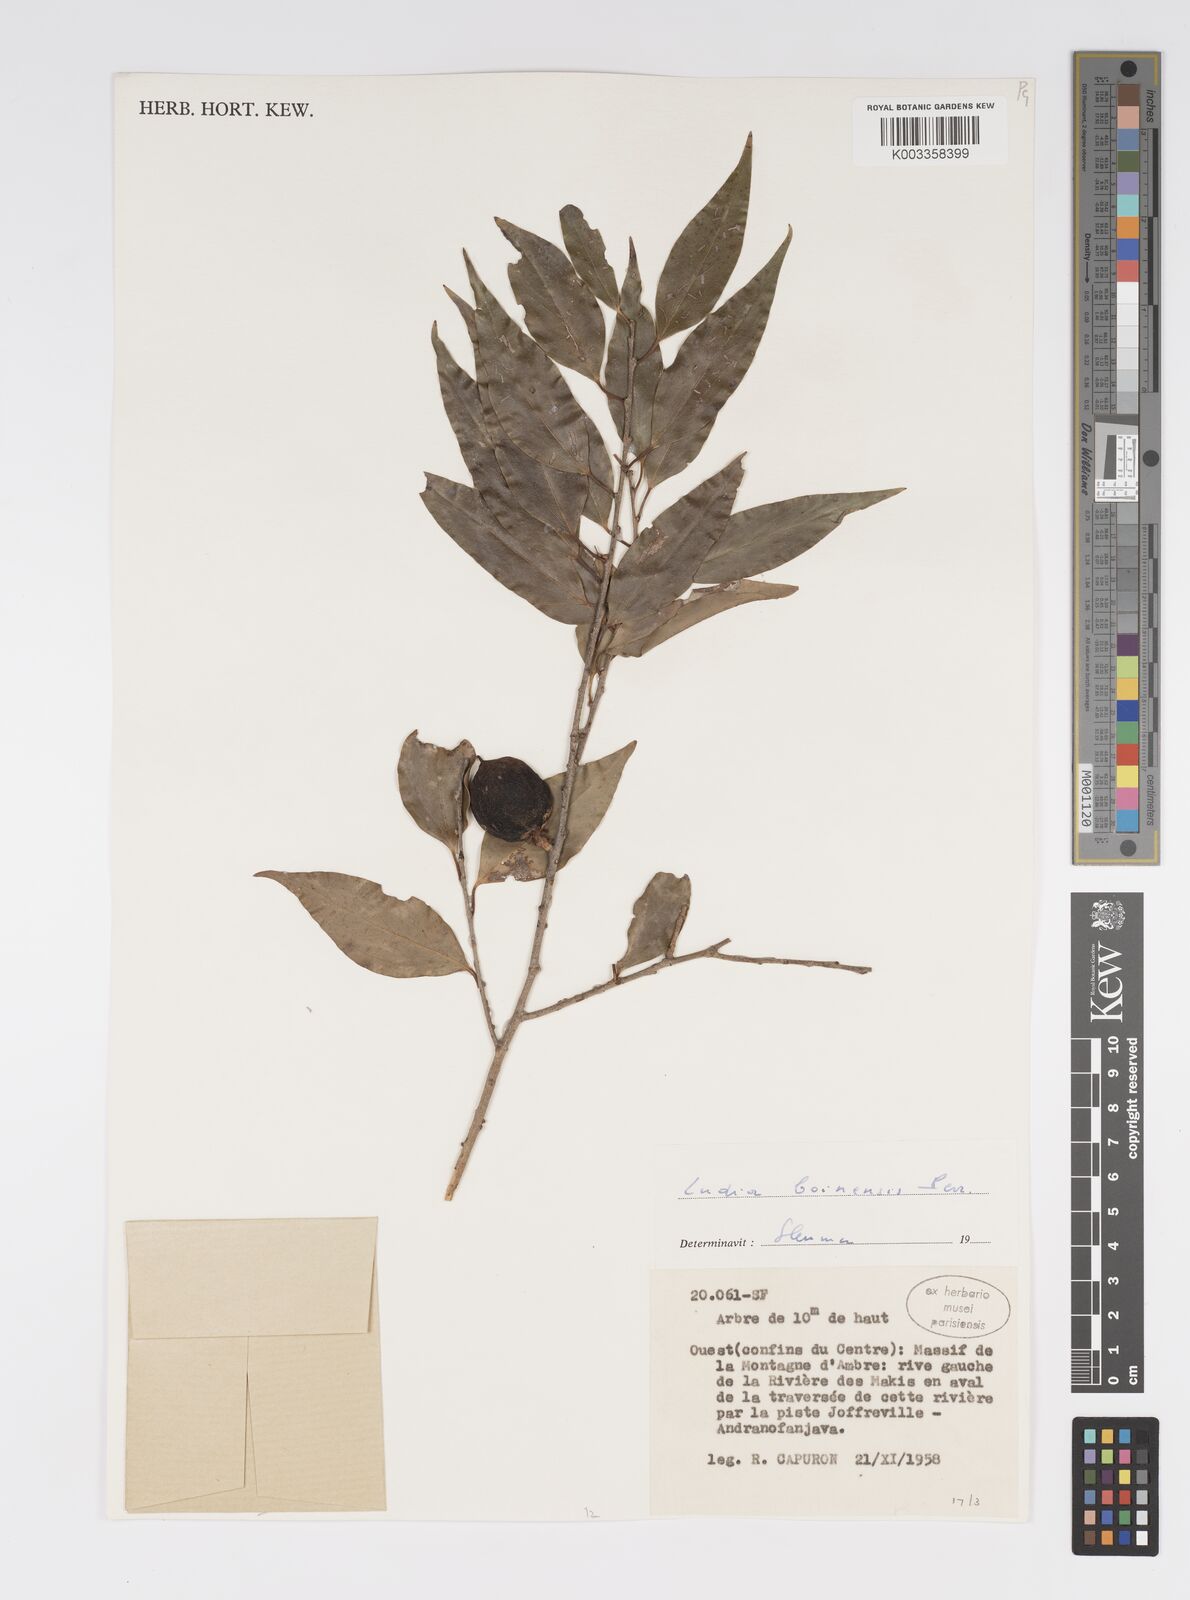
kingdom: Plantae
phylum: Tracheophyta
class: Magnoliopsida
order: Malpighiales
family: Salicaceae
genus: Ludia
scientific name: Ludia boinensis
